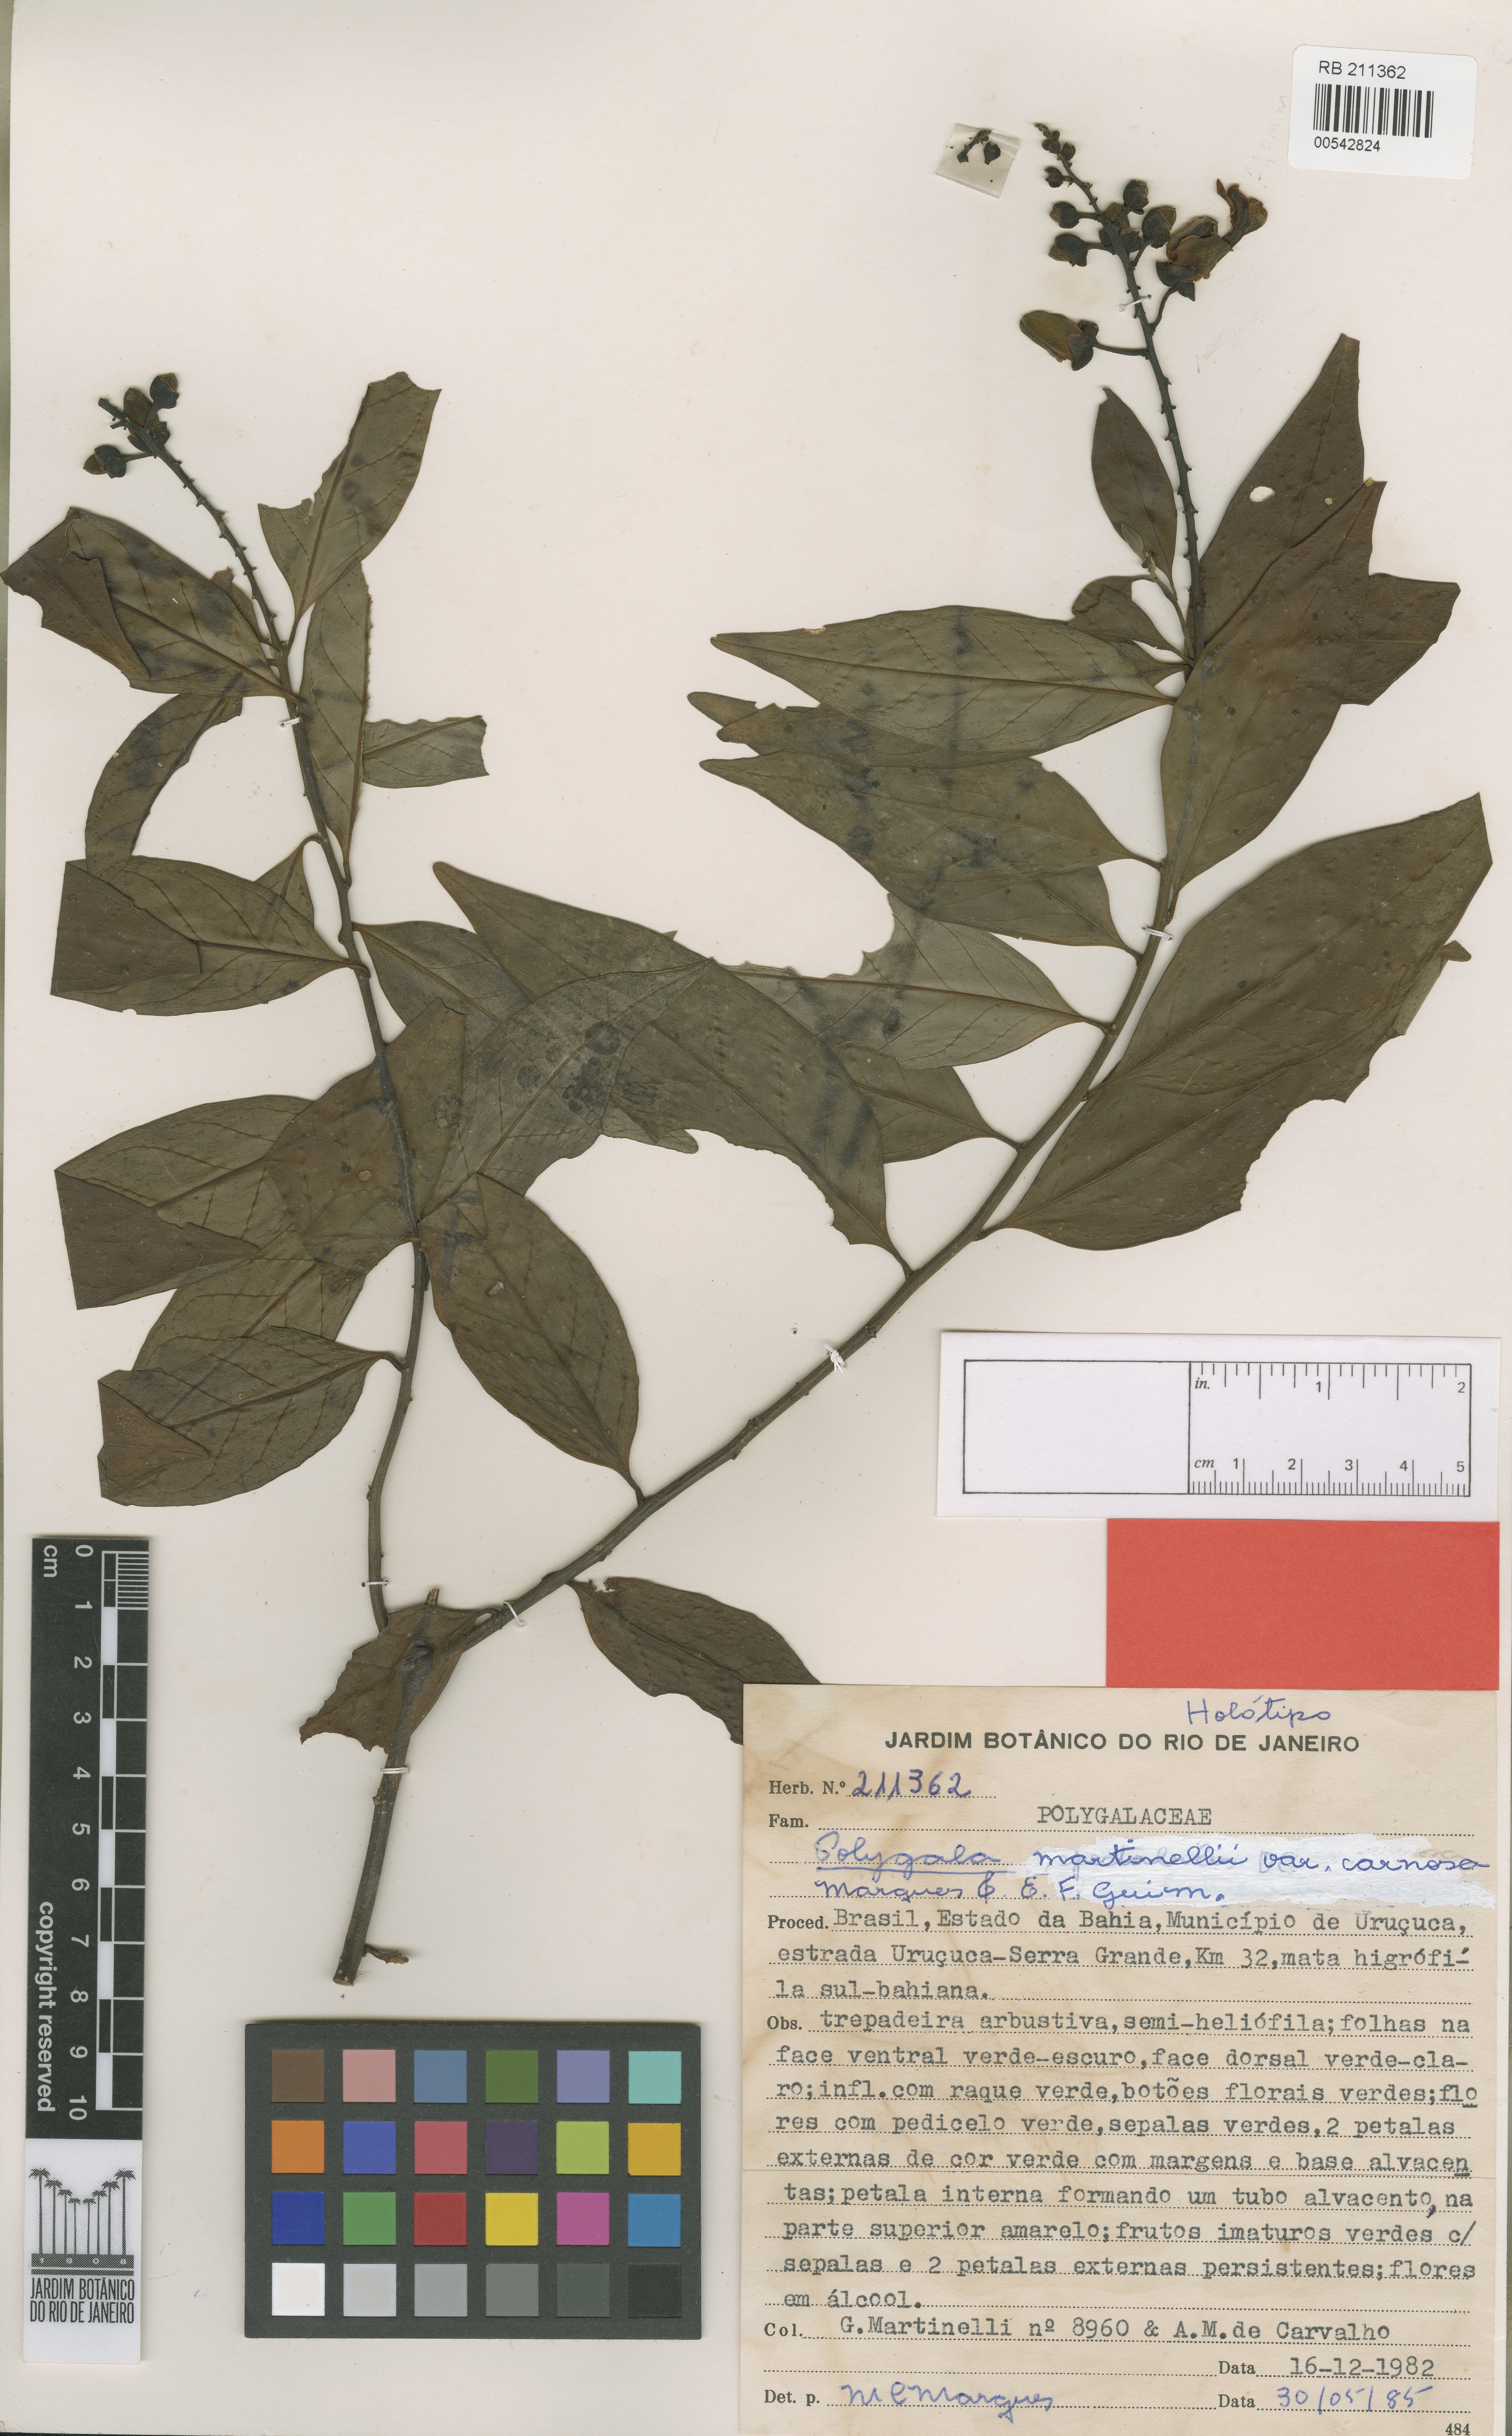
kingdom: Plantae
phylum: Tracheophyta
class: Magnoliopsida
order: Fabales
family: Polygalaceae
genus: Caamembeca
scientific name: Caamembeca martinellii
